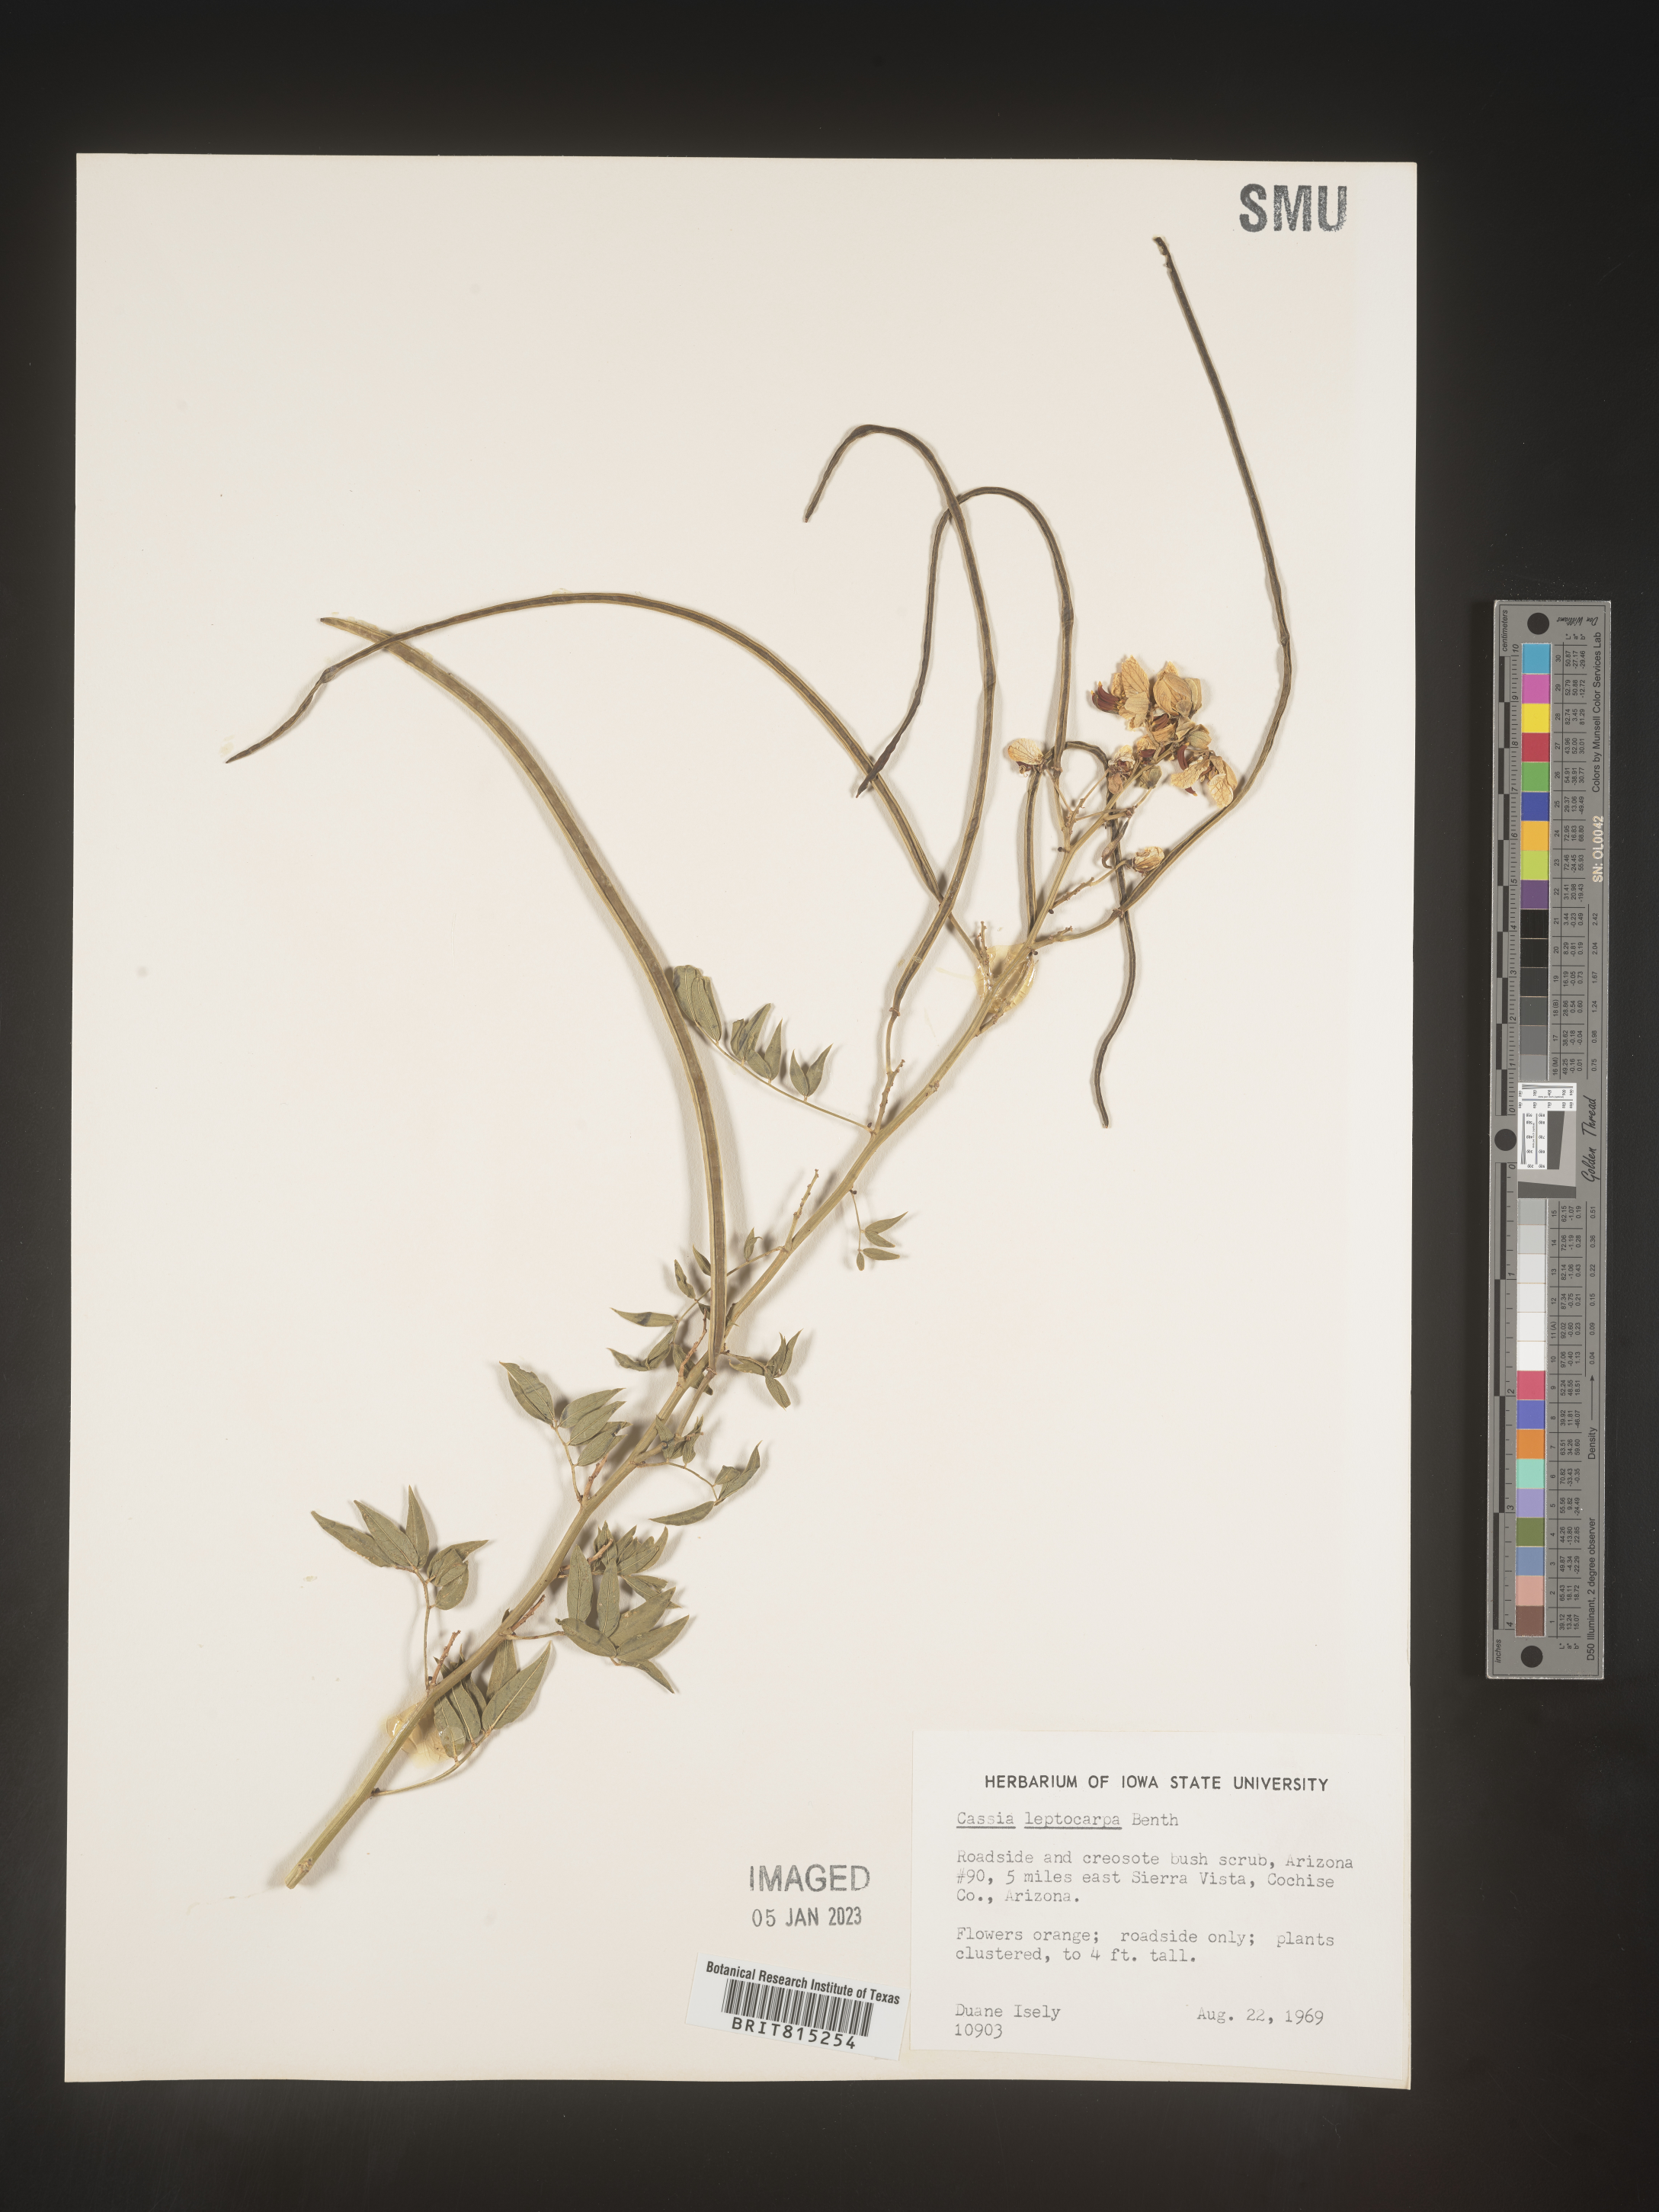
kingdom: Plantae
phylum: Tracheophyta
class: Magnoliopsida
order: Fabales
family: Fabaceae
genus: Cassia
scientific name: Cassia
